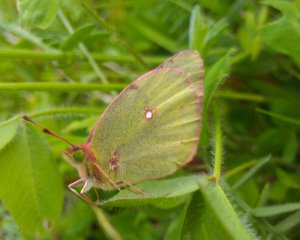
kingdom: Animalia
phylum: Arthropoda
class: Insecta
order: Lepidoptera
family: Pieridae
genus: Colias
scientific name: Colias philodice
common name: Clouded Sulphur
